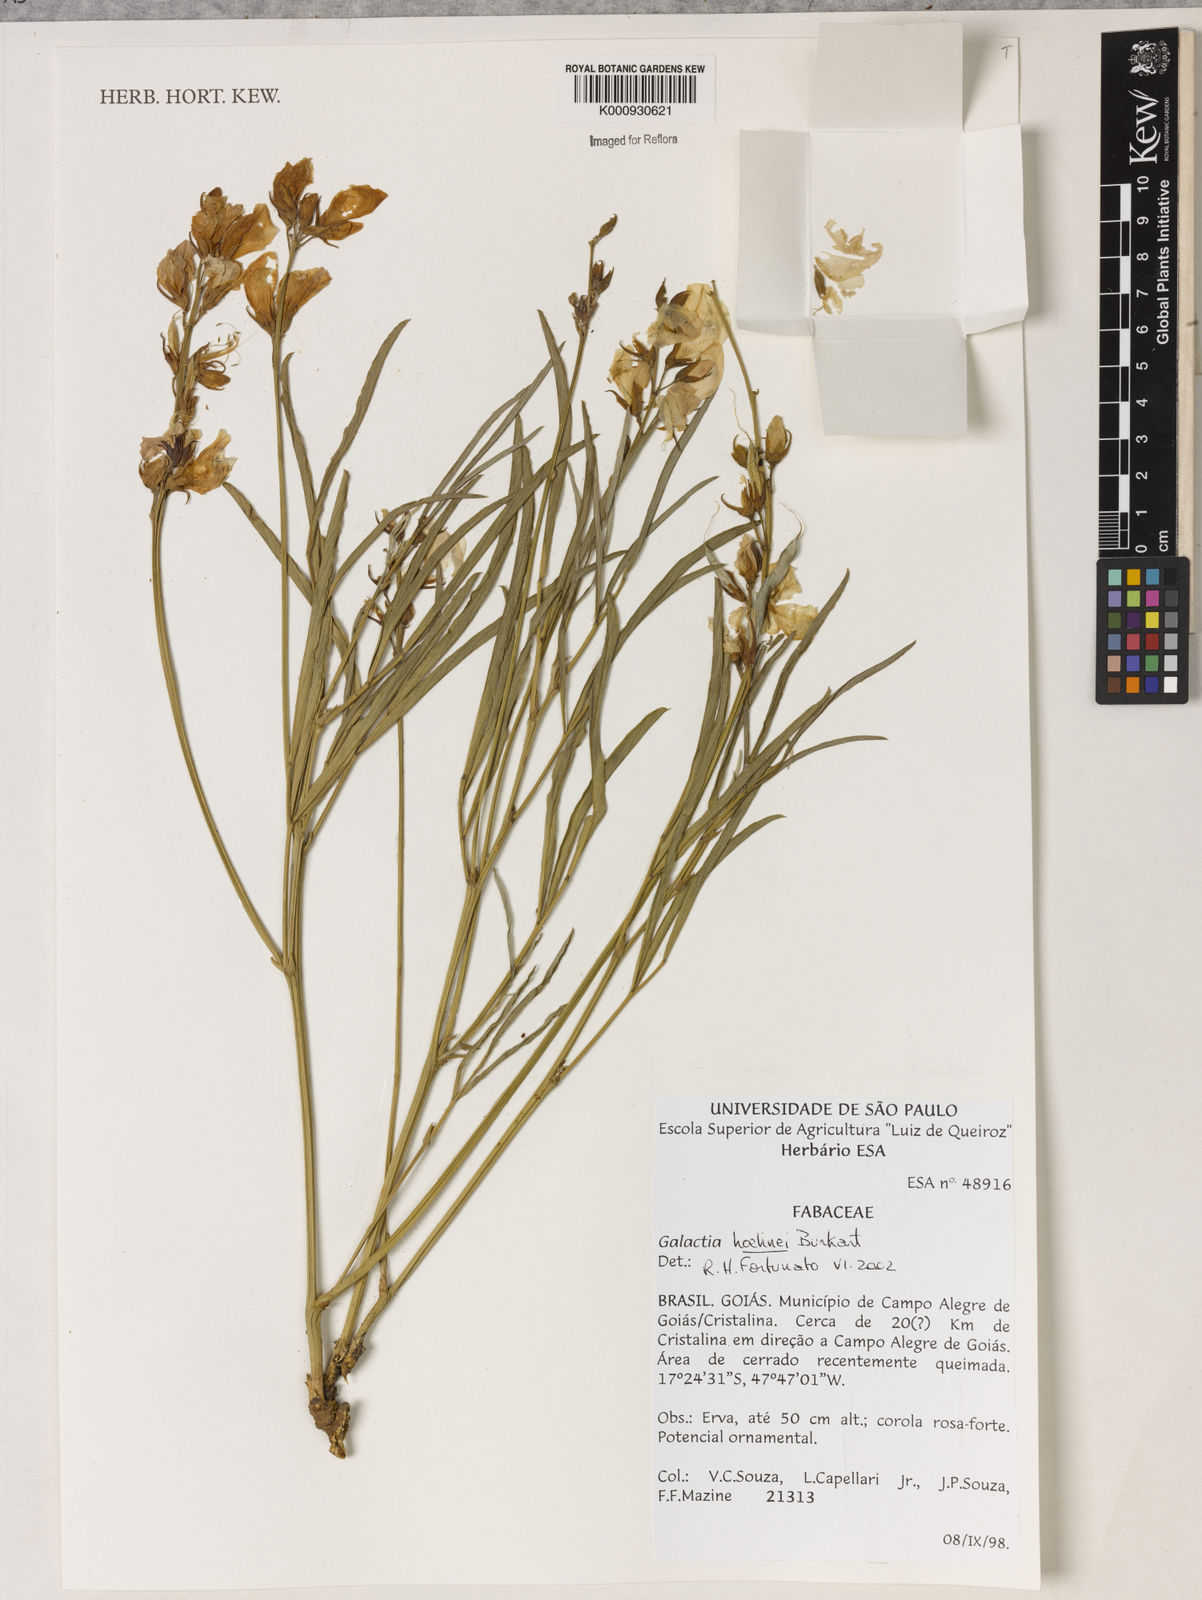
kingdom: Plantae
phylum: Tracheophyta
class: Magnoliopsida
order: Fabales
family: Fabaceae
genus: Cerradicola
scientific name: Cerradicola longifolia
